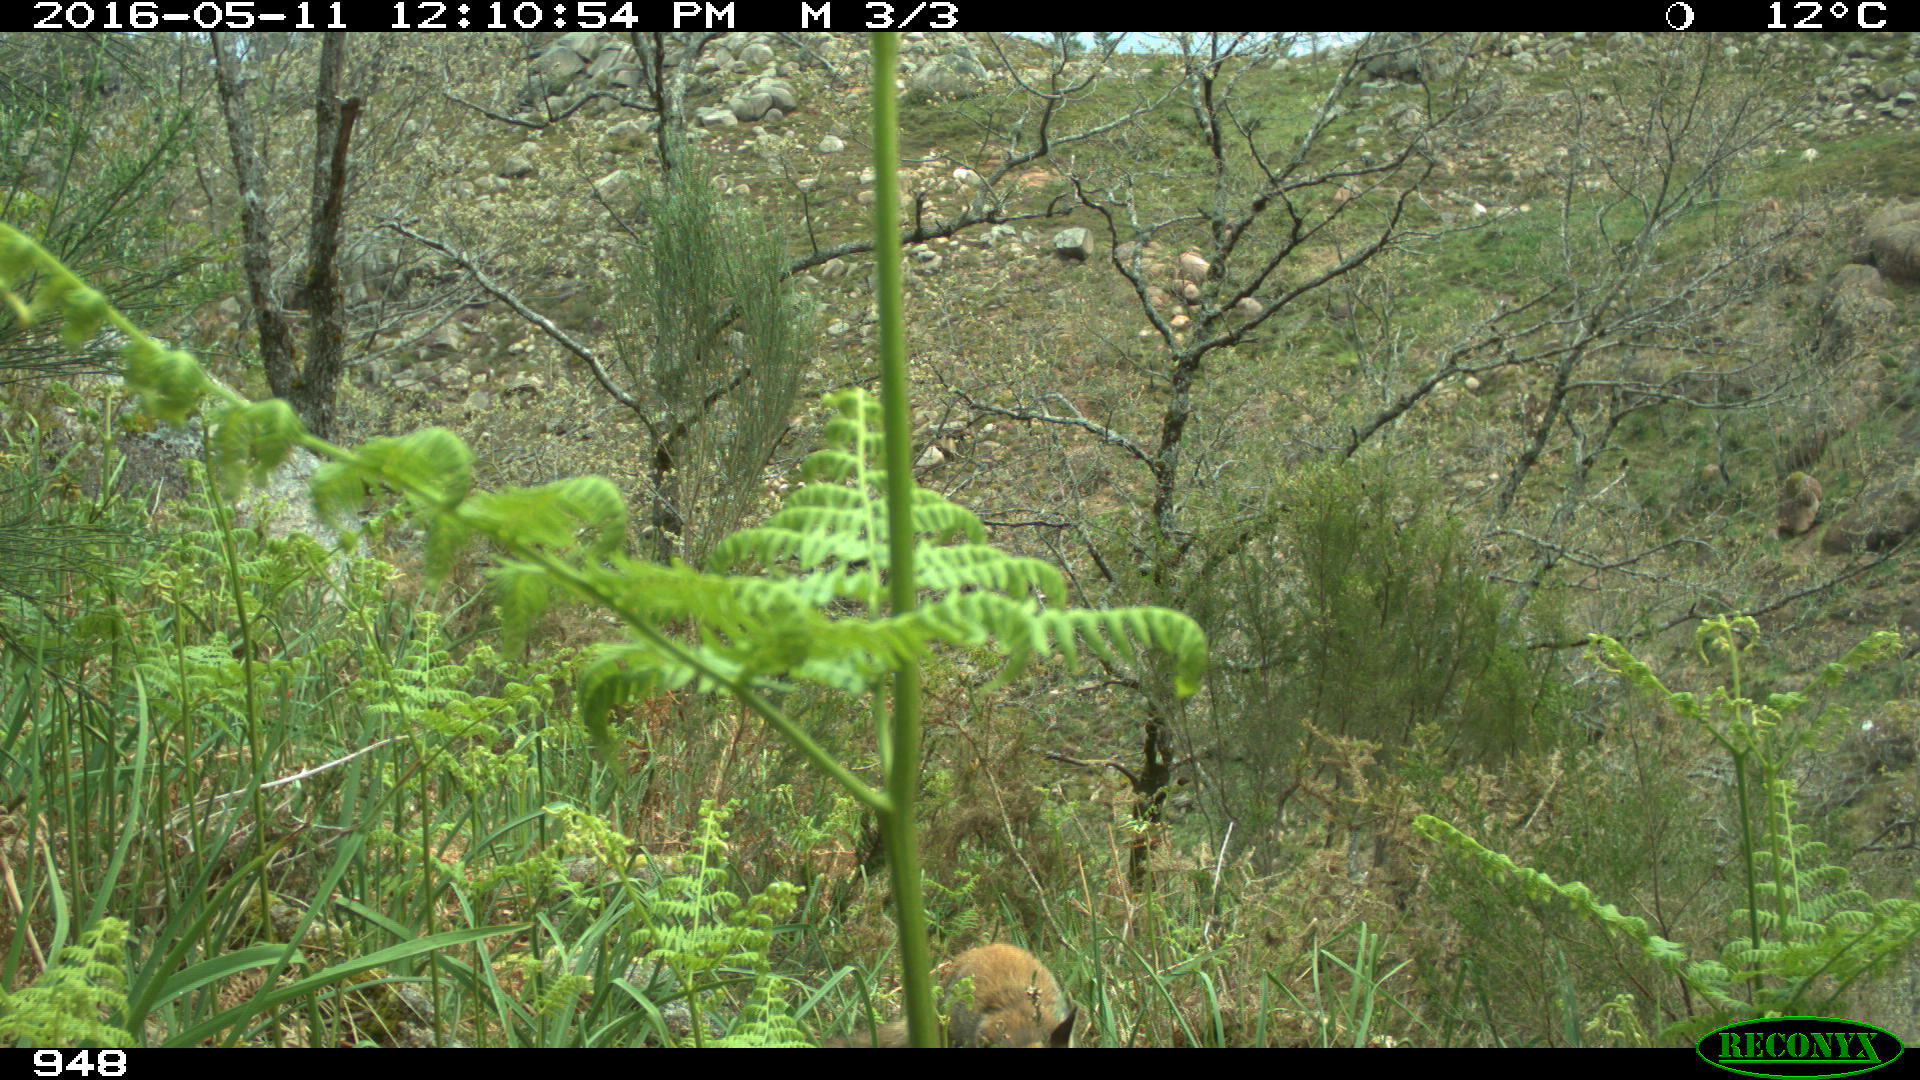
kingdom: Animalia
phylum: Chordata
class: Mammalia
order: Carnivora
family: Canidae
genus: Vulpes
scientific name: Vulpes vulpes
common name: Red fox
